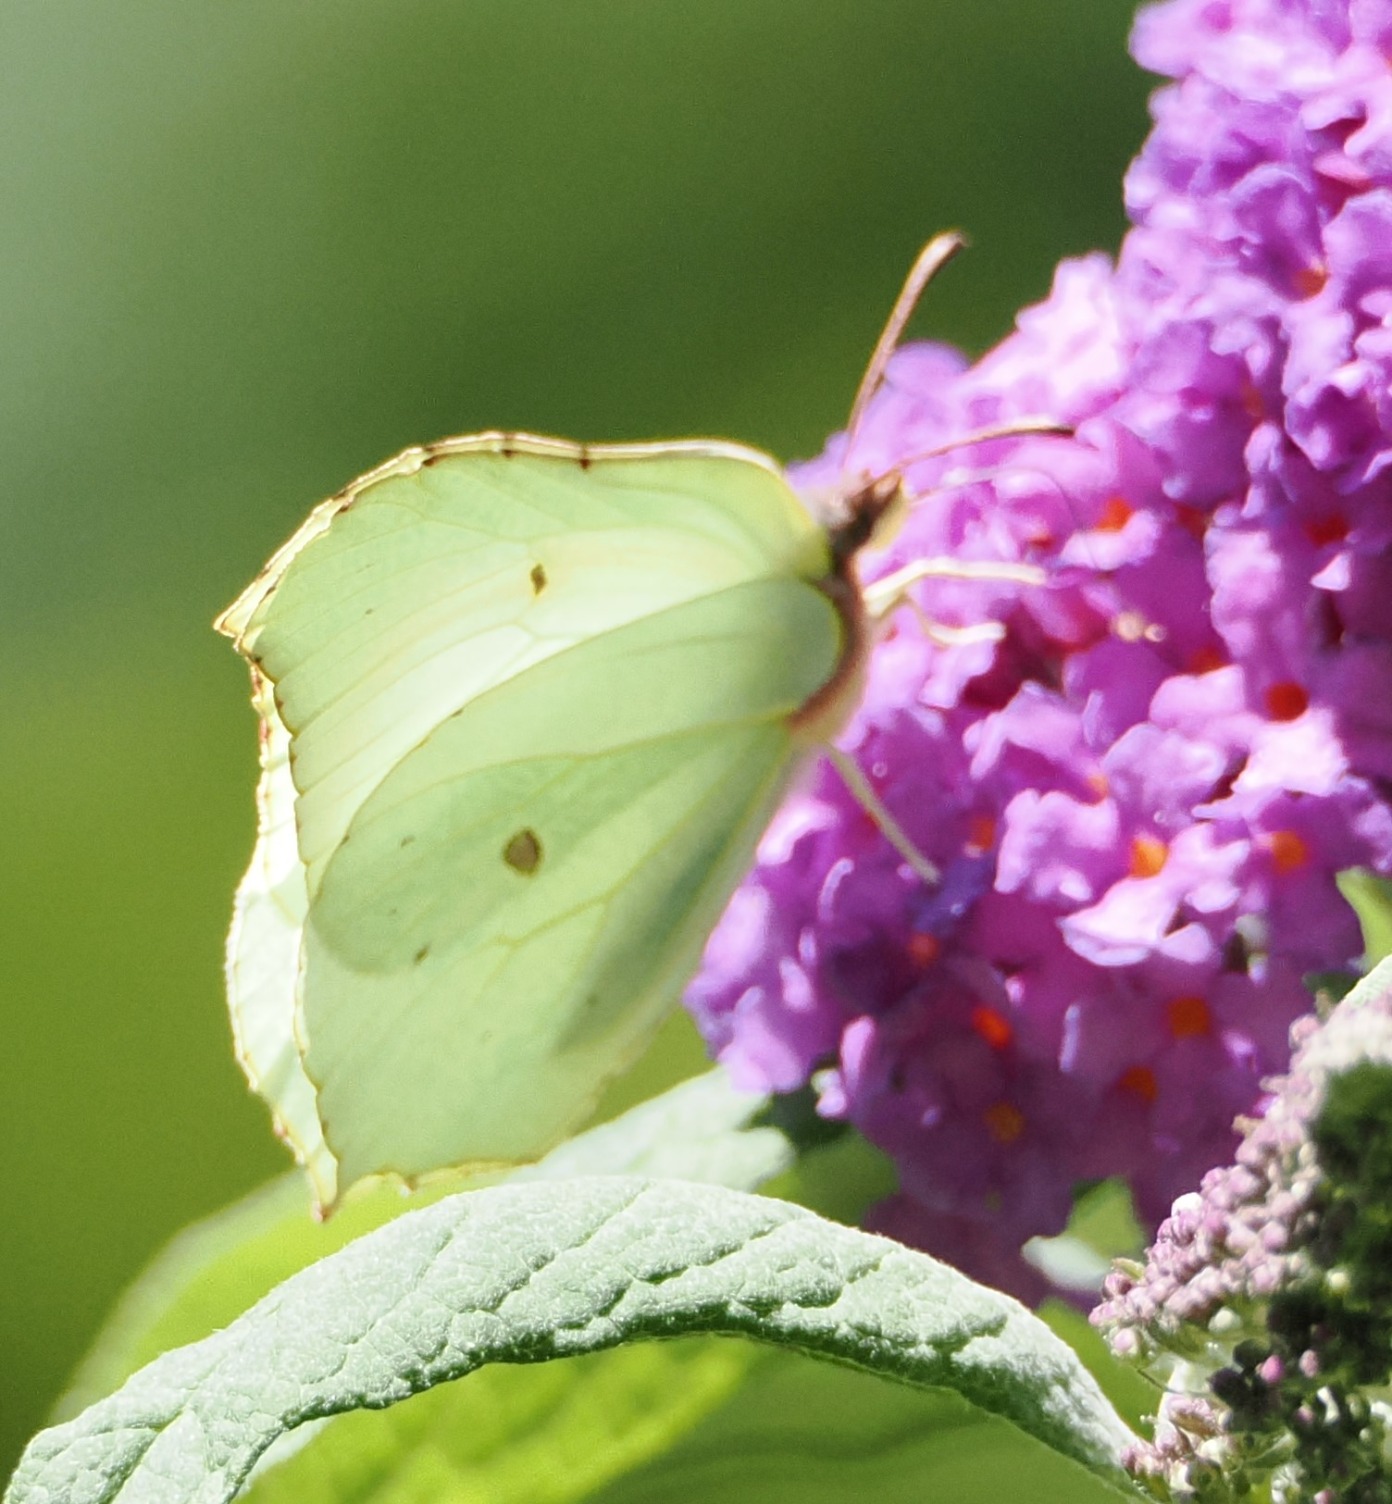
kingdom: Animalia
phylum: Arthropoda
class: Insecta
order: Lepidoptera
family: Pieridae
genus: Gonepteryx
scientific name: Gonepteryx rhamni
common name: Citronsommerfugl
